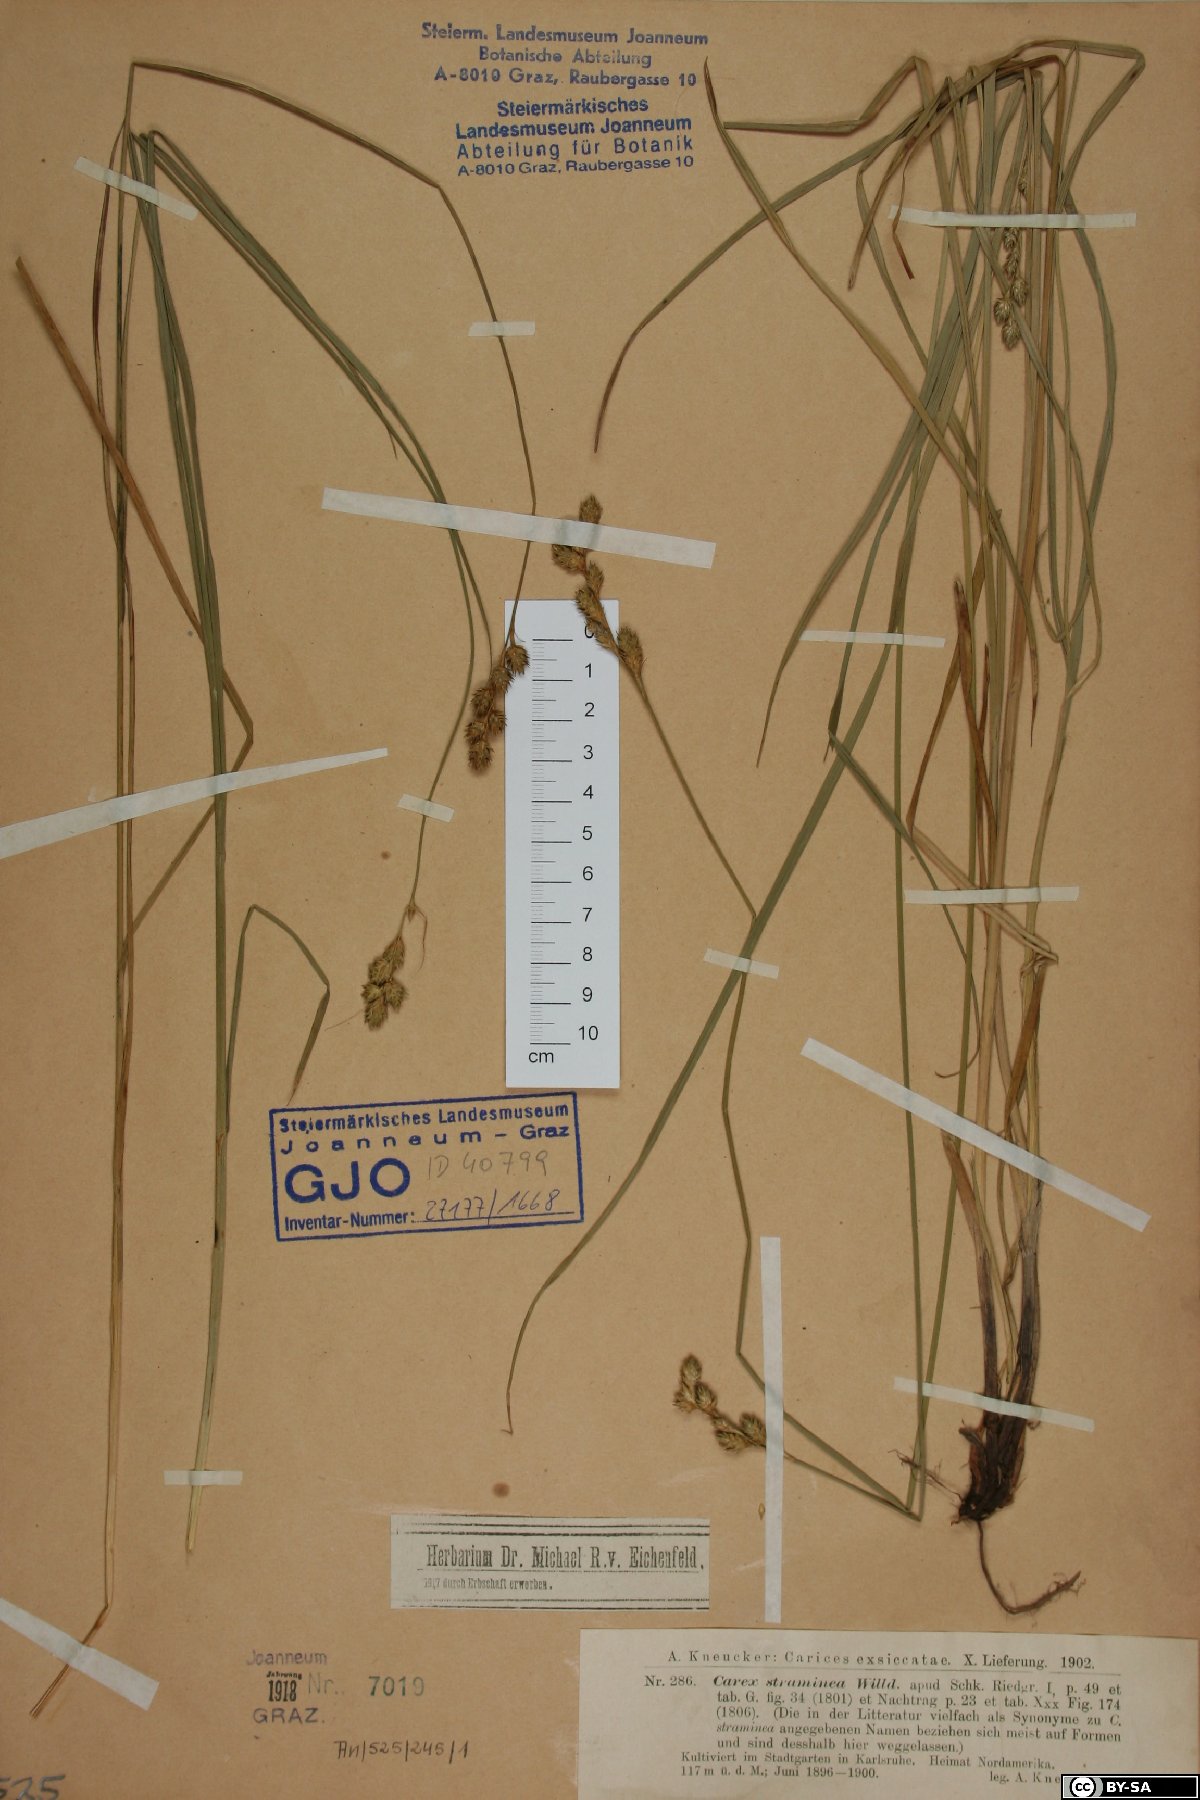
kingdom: Plantae
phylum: Tracheophyta
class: Liliopsida
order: Poales
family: Cyperaceae
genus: Carex
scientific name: Carex straminea
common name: Eastern straw sedge
